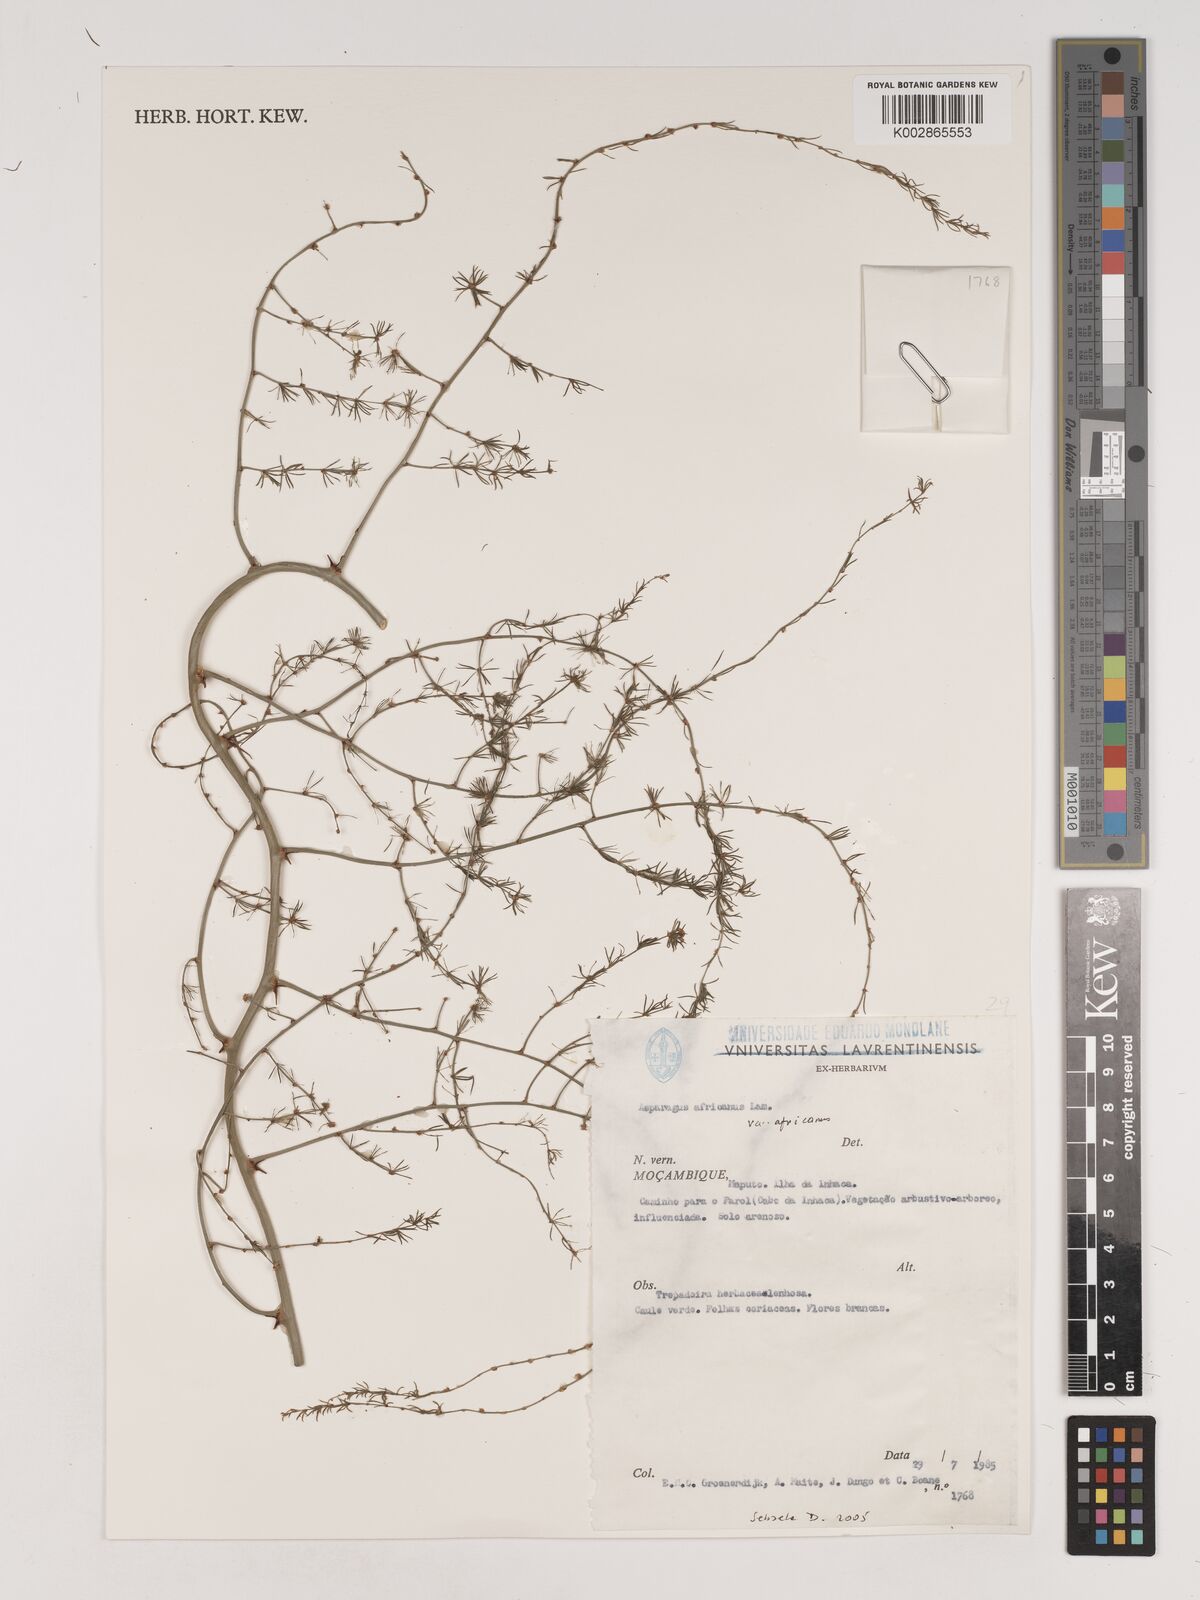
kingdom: Plantae
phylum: Tracheophyta
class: Liliopsida
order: Asparagales
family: Asparagaceae
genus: Asparagus
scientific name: Asparagus africanus
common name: Asparagus-fern
